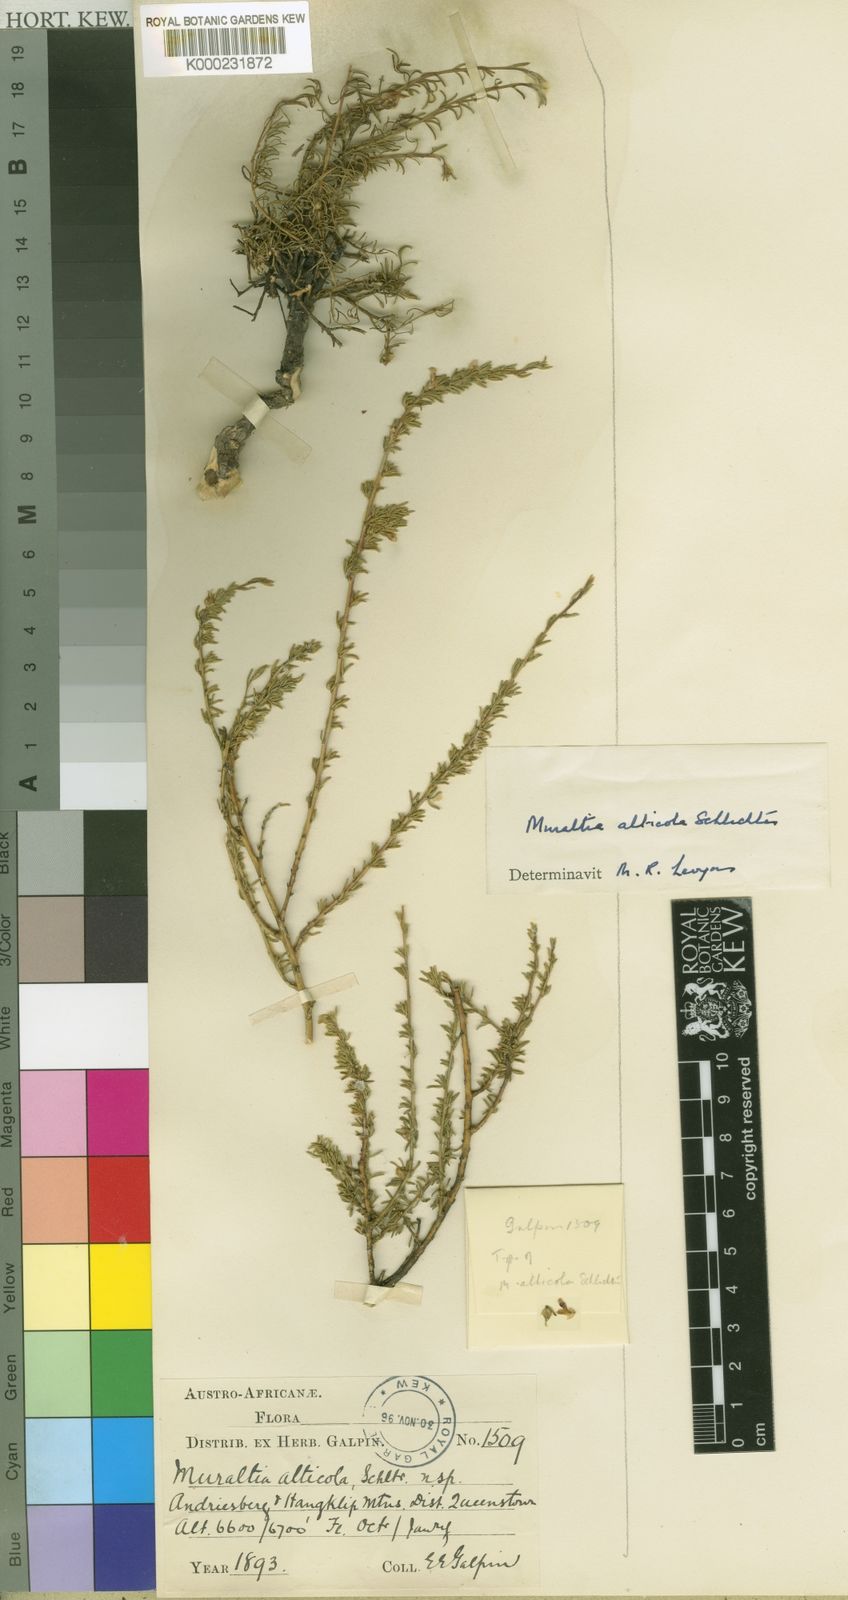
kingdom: Plantae
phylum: Tracheophyta
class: Magnoliopsida
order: Fabales
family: Polygalaceae
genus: Muraltia
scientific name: Muraltia alticola
